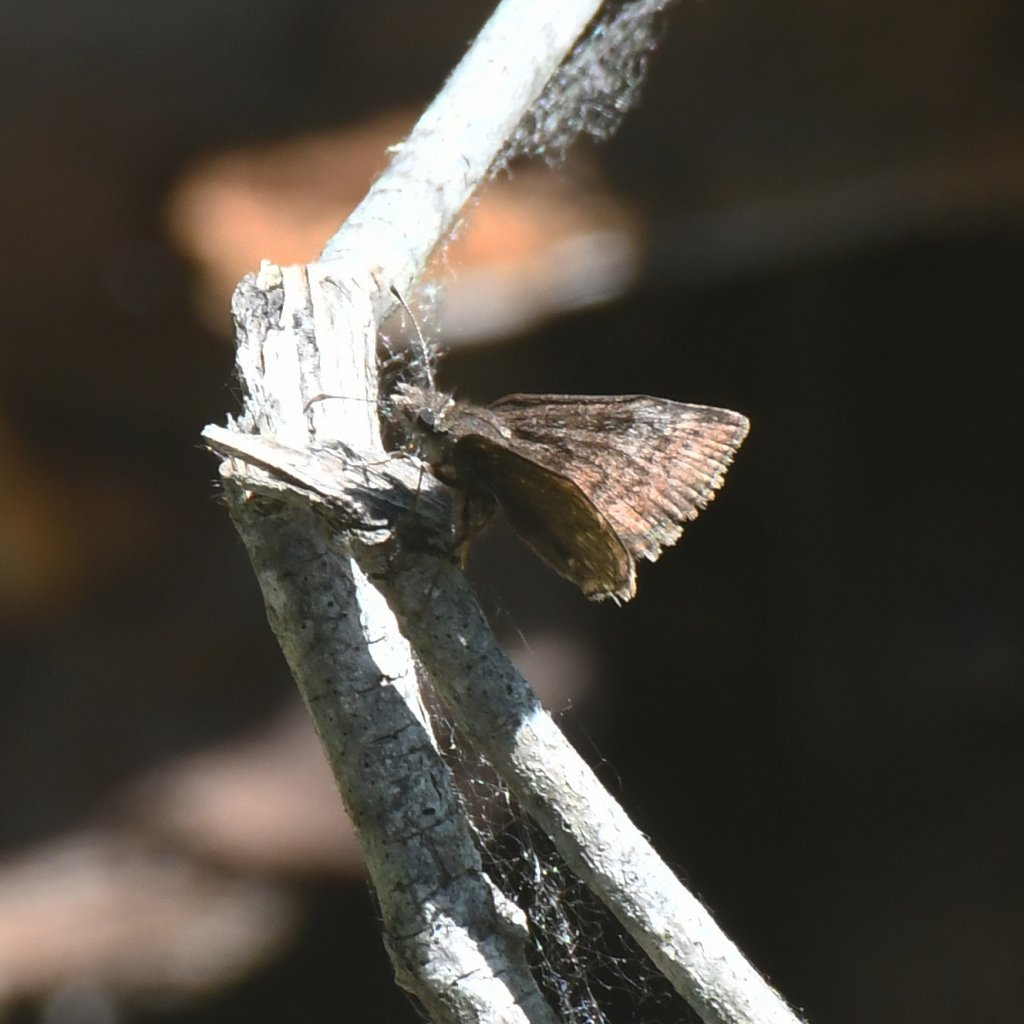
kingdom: Animalia
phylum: Arthropoda
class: Insecta
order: Lepidoptera
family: Hesperiidae
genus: Erynnis
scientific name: Erynnis icelus
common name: Dreamy Duskywing
